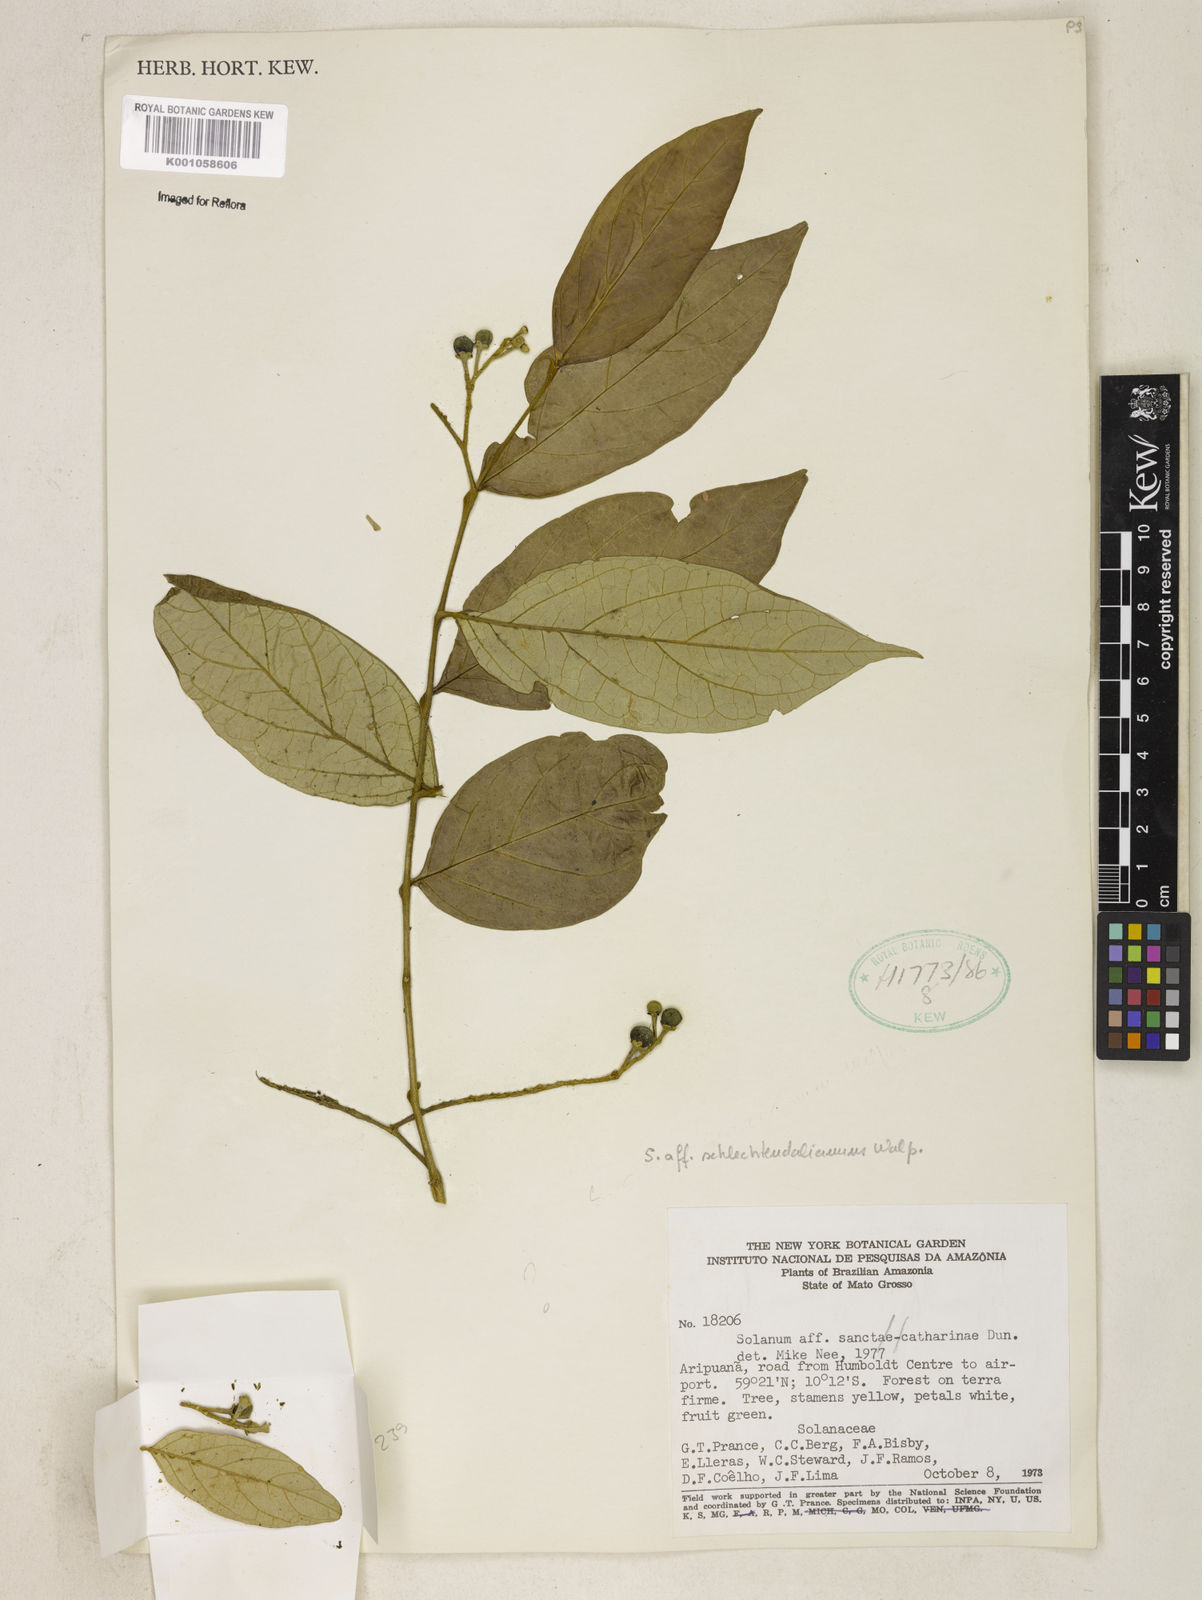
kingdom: Plantae
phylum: Tracheophyta
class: Magnoliopsida
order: Solanales
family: Solanaceae
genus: Solanum
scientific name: Solanum sanctae-catharinae
